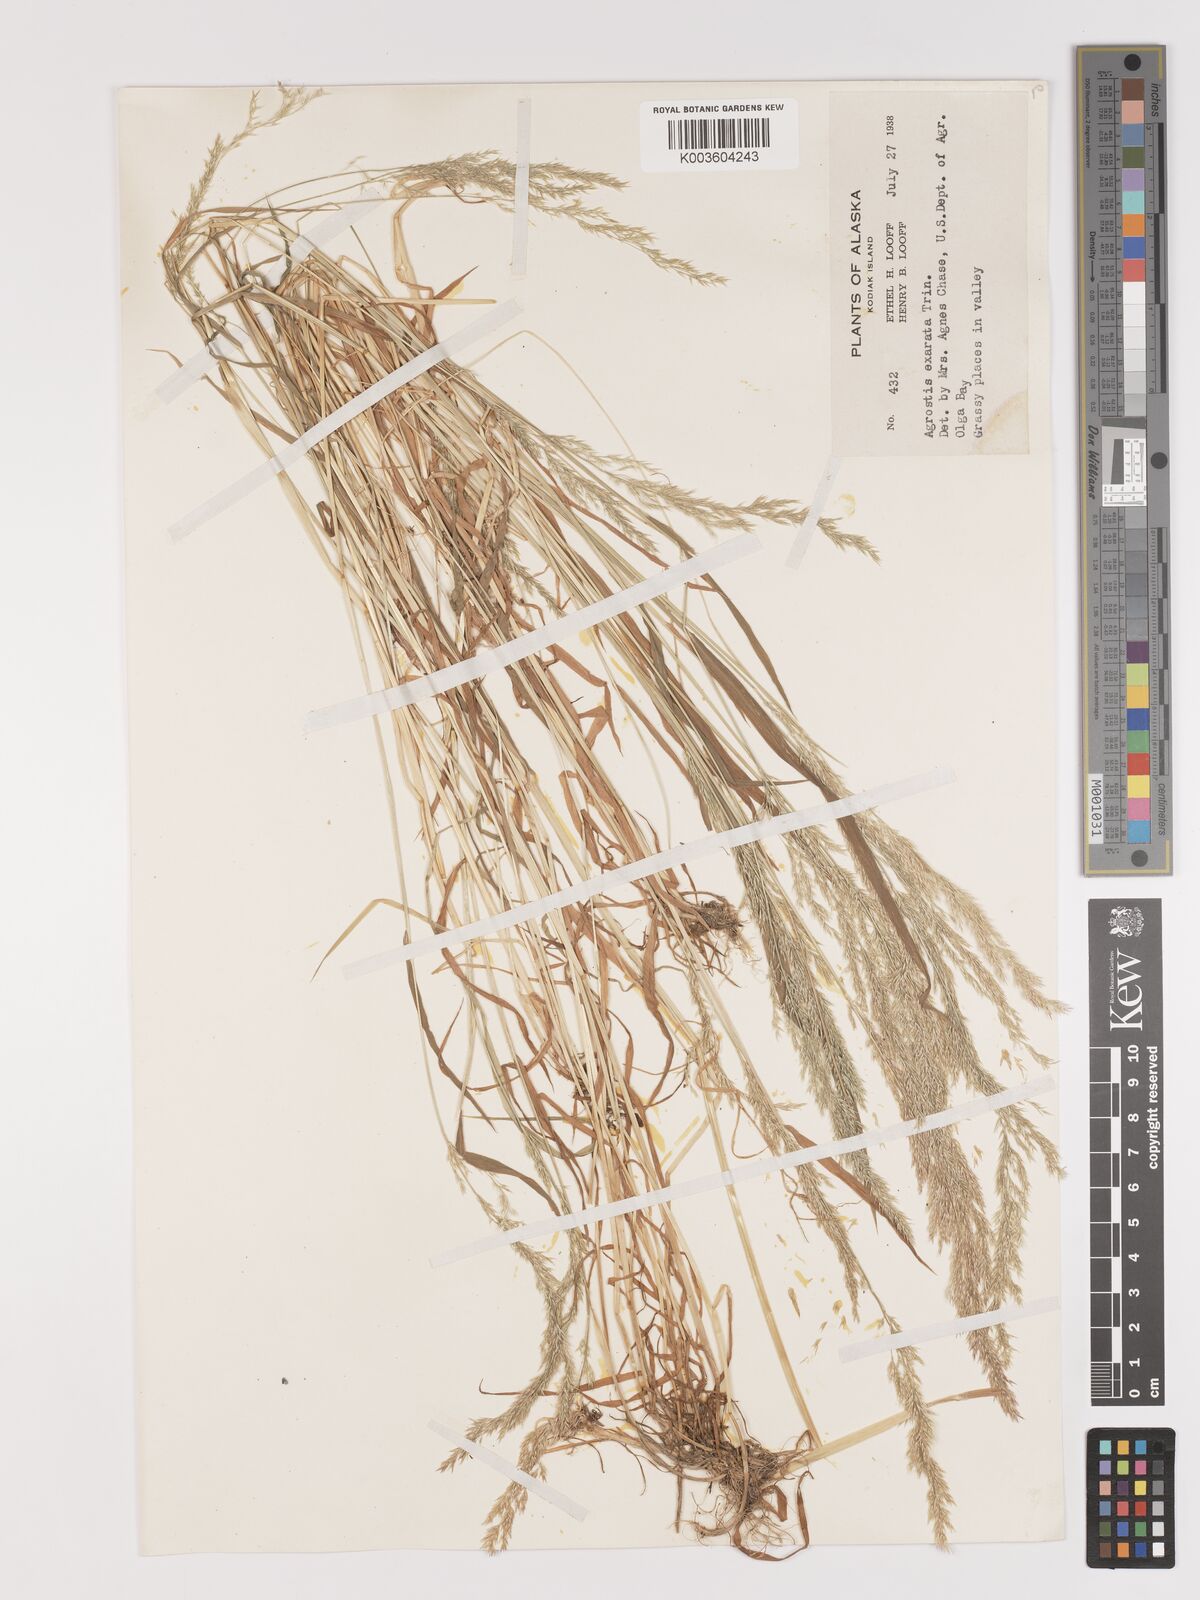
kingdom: Plantae
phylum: Tracheophyta
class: Liliopsida
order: Poales
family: Poaceae
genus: Agrostis
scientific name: Agrostis exarata
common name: Spike bent
